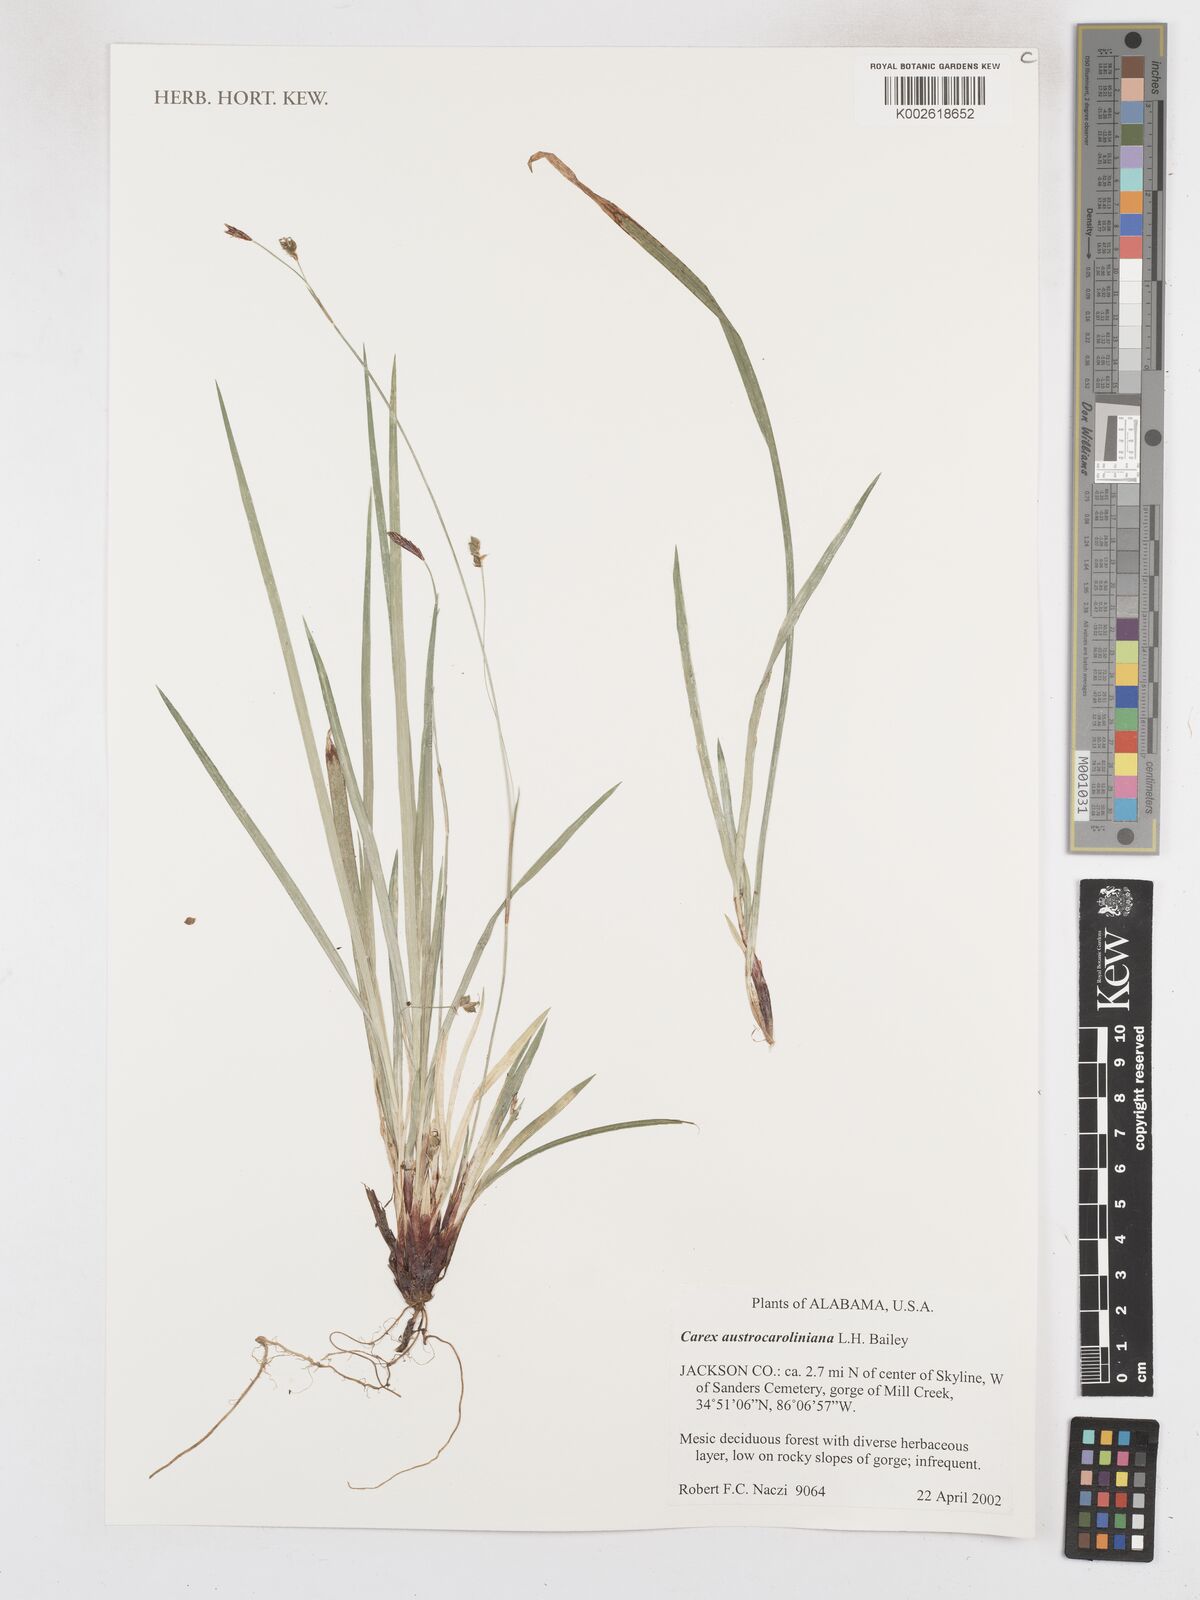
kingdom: Plantae
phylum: Tracheophyta
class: Liliopsida
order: Poales
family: Cyperaceae
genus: Carex
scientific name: Carex austrocaroliniana
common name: Tarheel sedge
